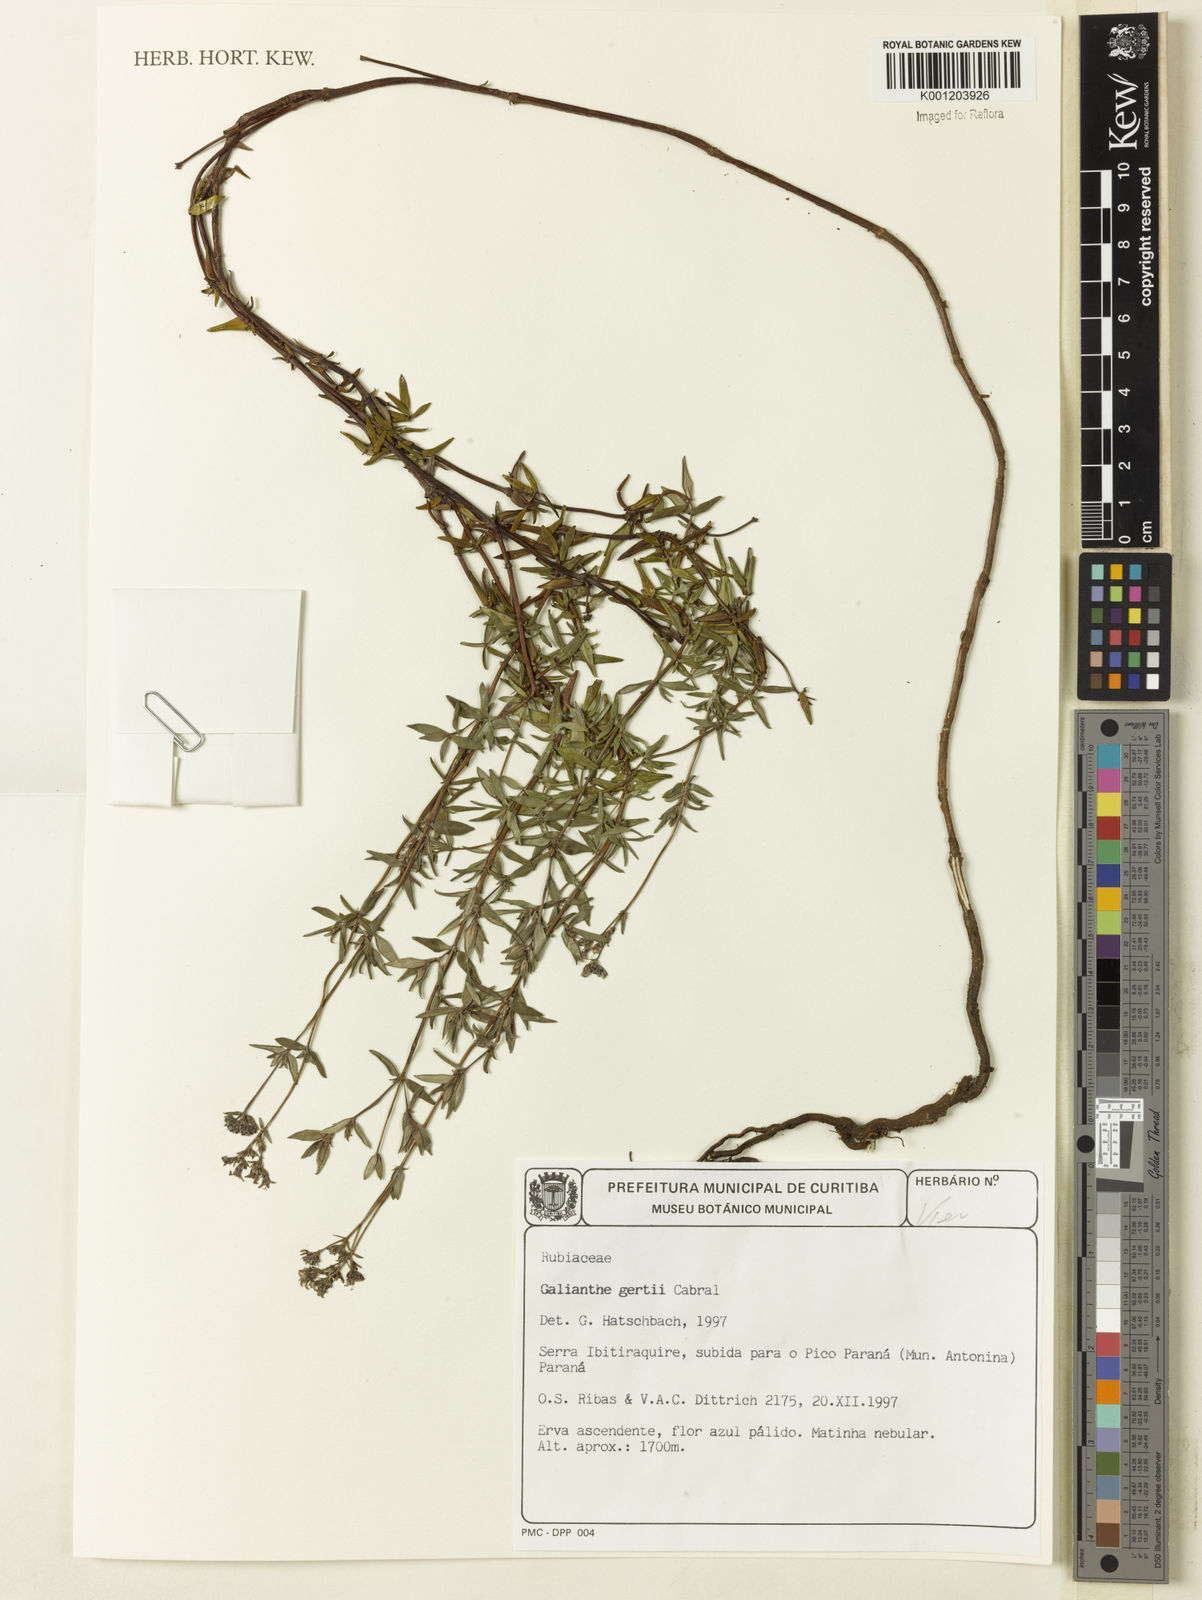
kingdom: Plantae
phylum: Tracheophyta
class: Magnoliopsida
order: Gentianales
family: Rubiaceae
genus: Galianthe
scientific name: Galianthe gertii
